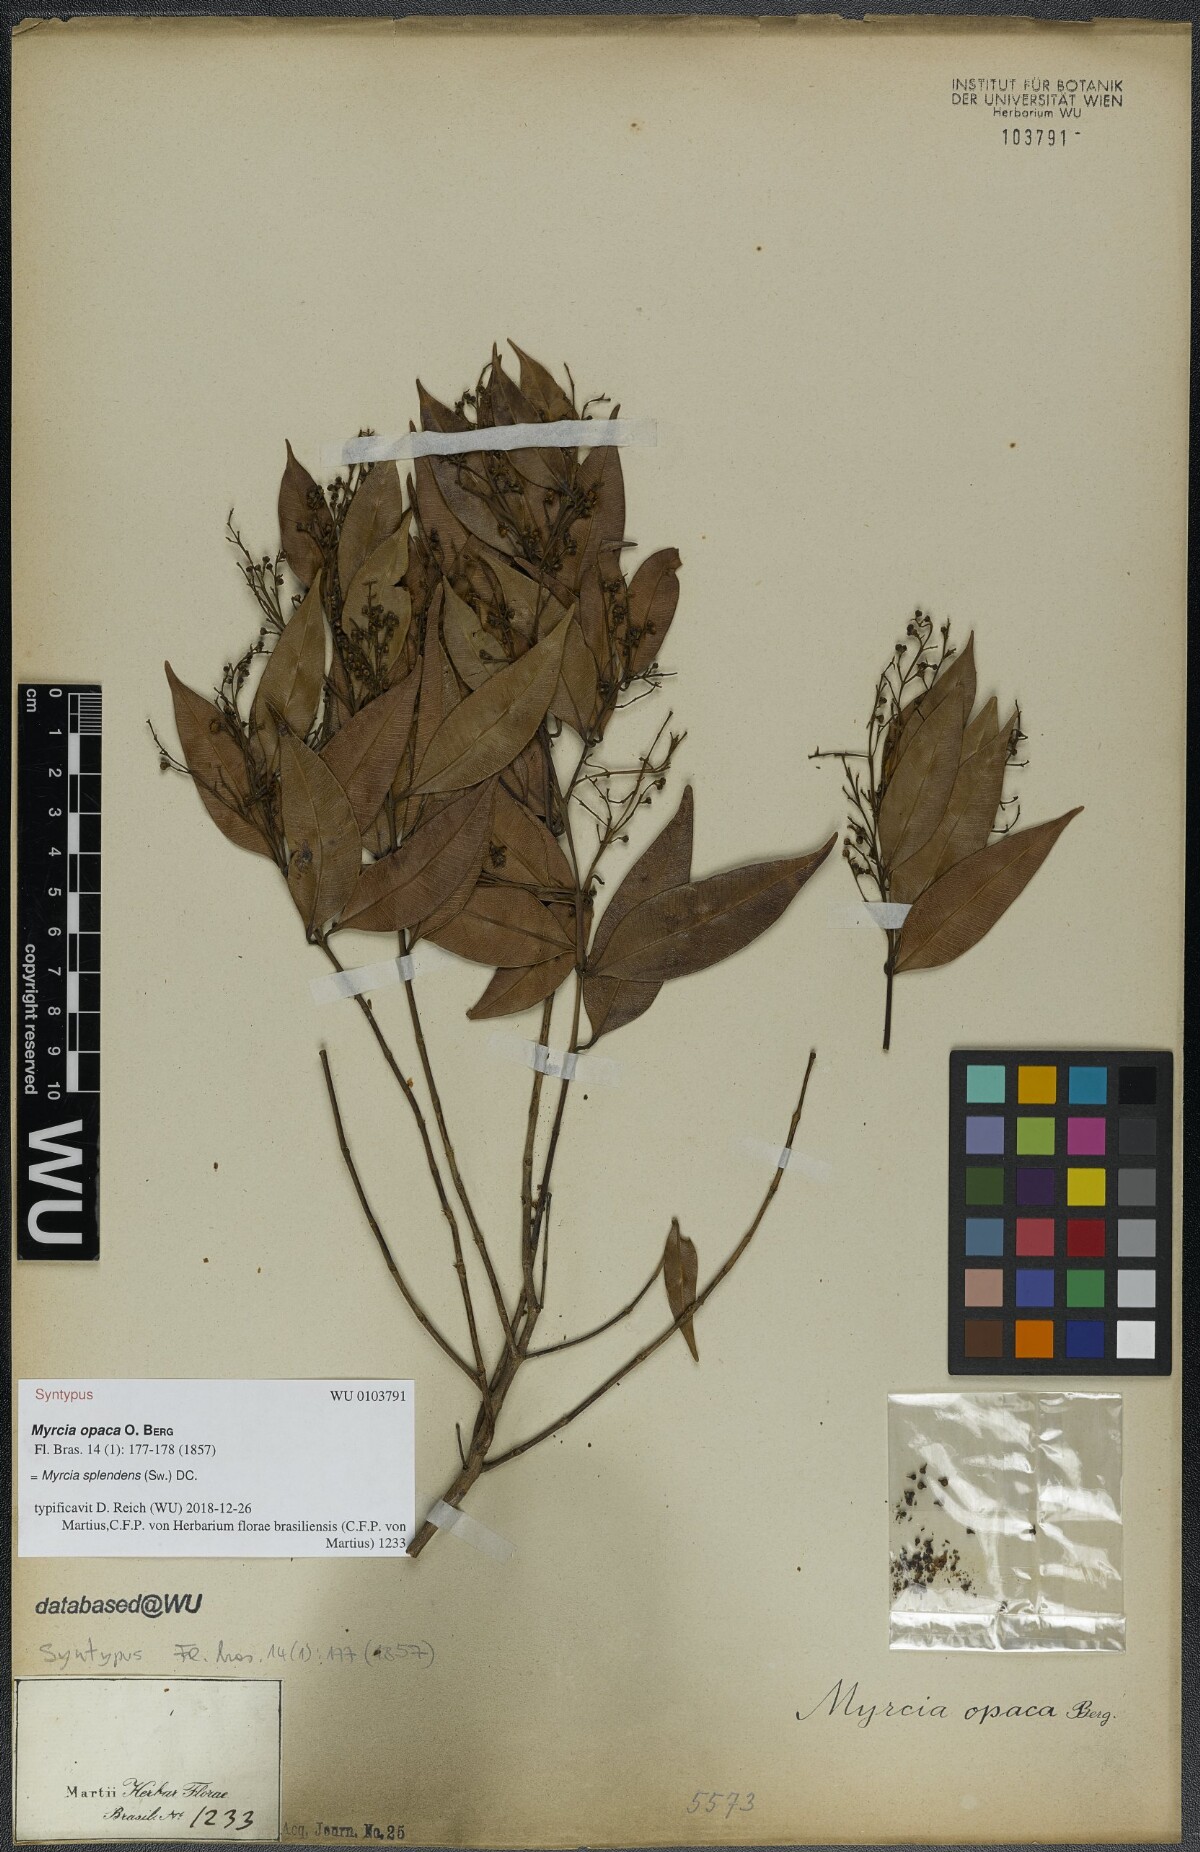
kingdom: Plantae
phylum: Tracheophyta
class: Magnoliopsida
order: Myrtales
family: Myrtaceae
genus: Myrcia
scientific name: Myrcia splendens
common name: Surinam cherry
